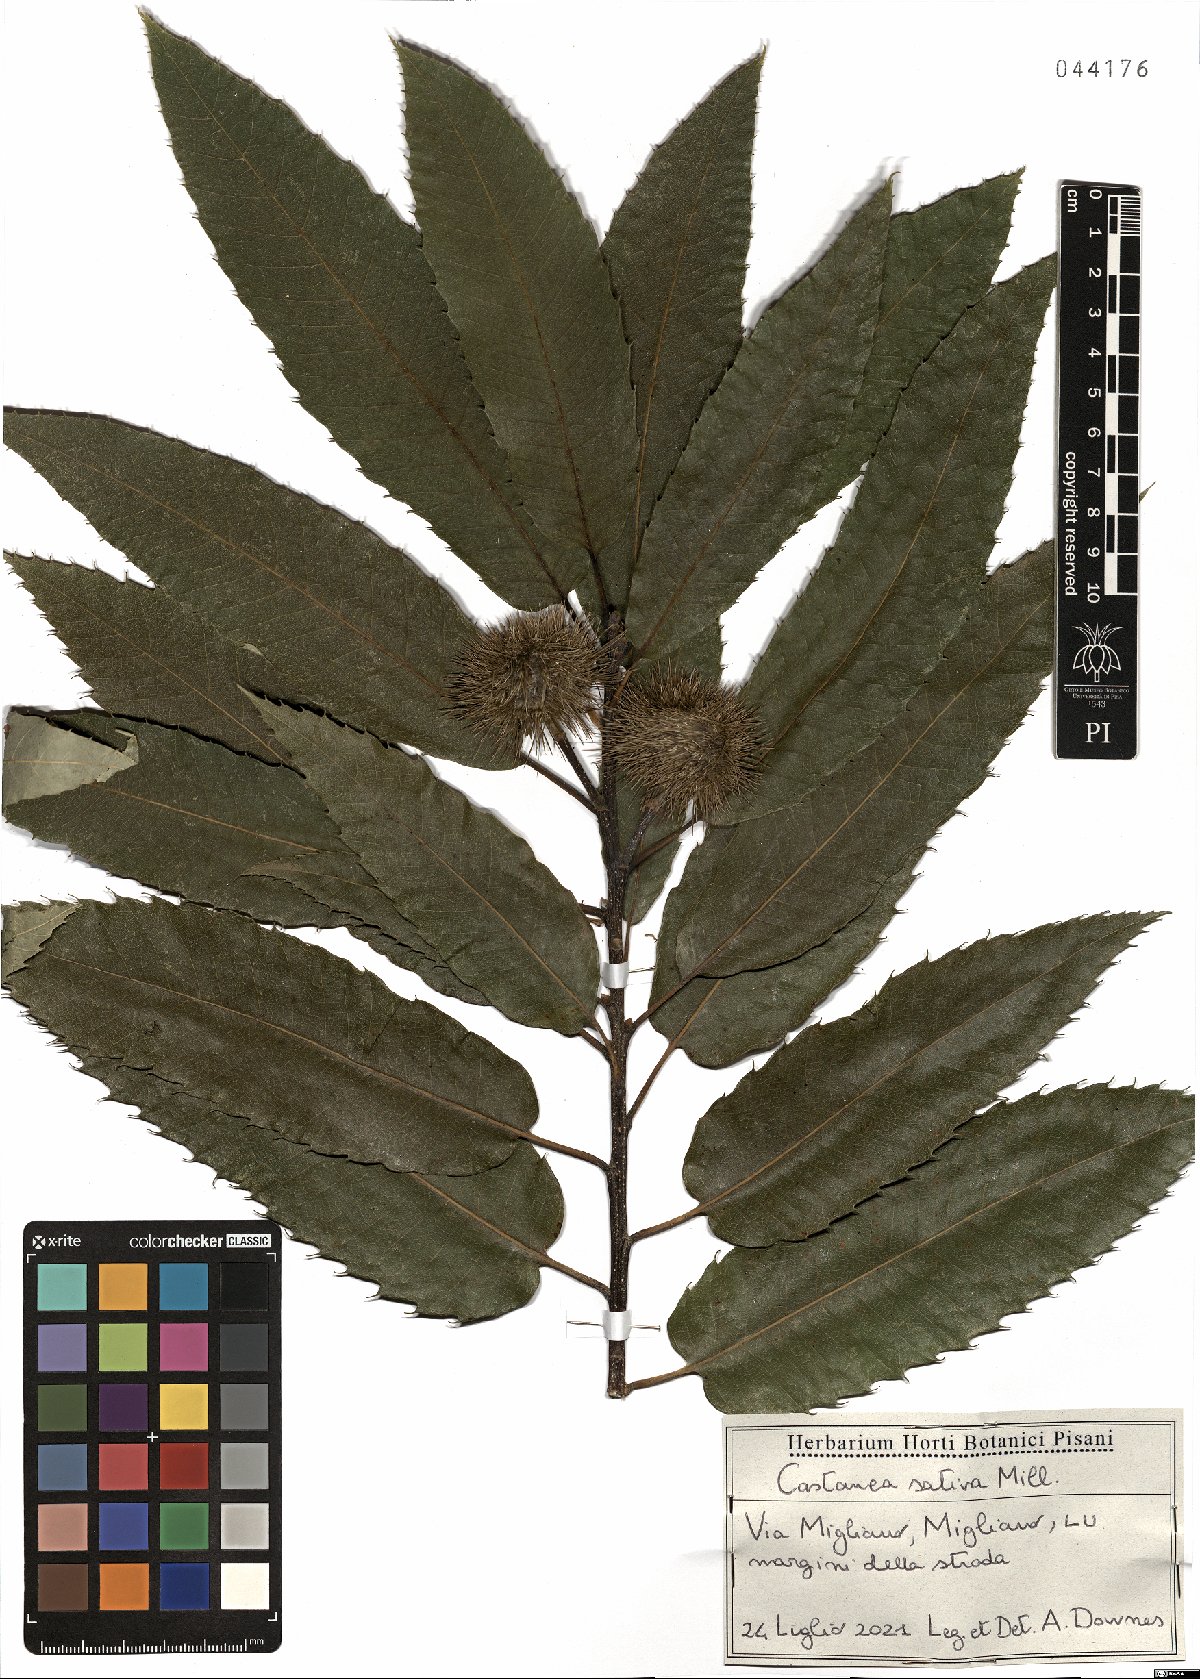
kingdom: Plantae
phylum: Tracheophyta
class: Magnoliopsida
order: Fagales
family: Fagaceae
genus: Castanea
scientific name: Castanea sativa
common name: Sweet chestnut
